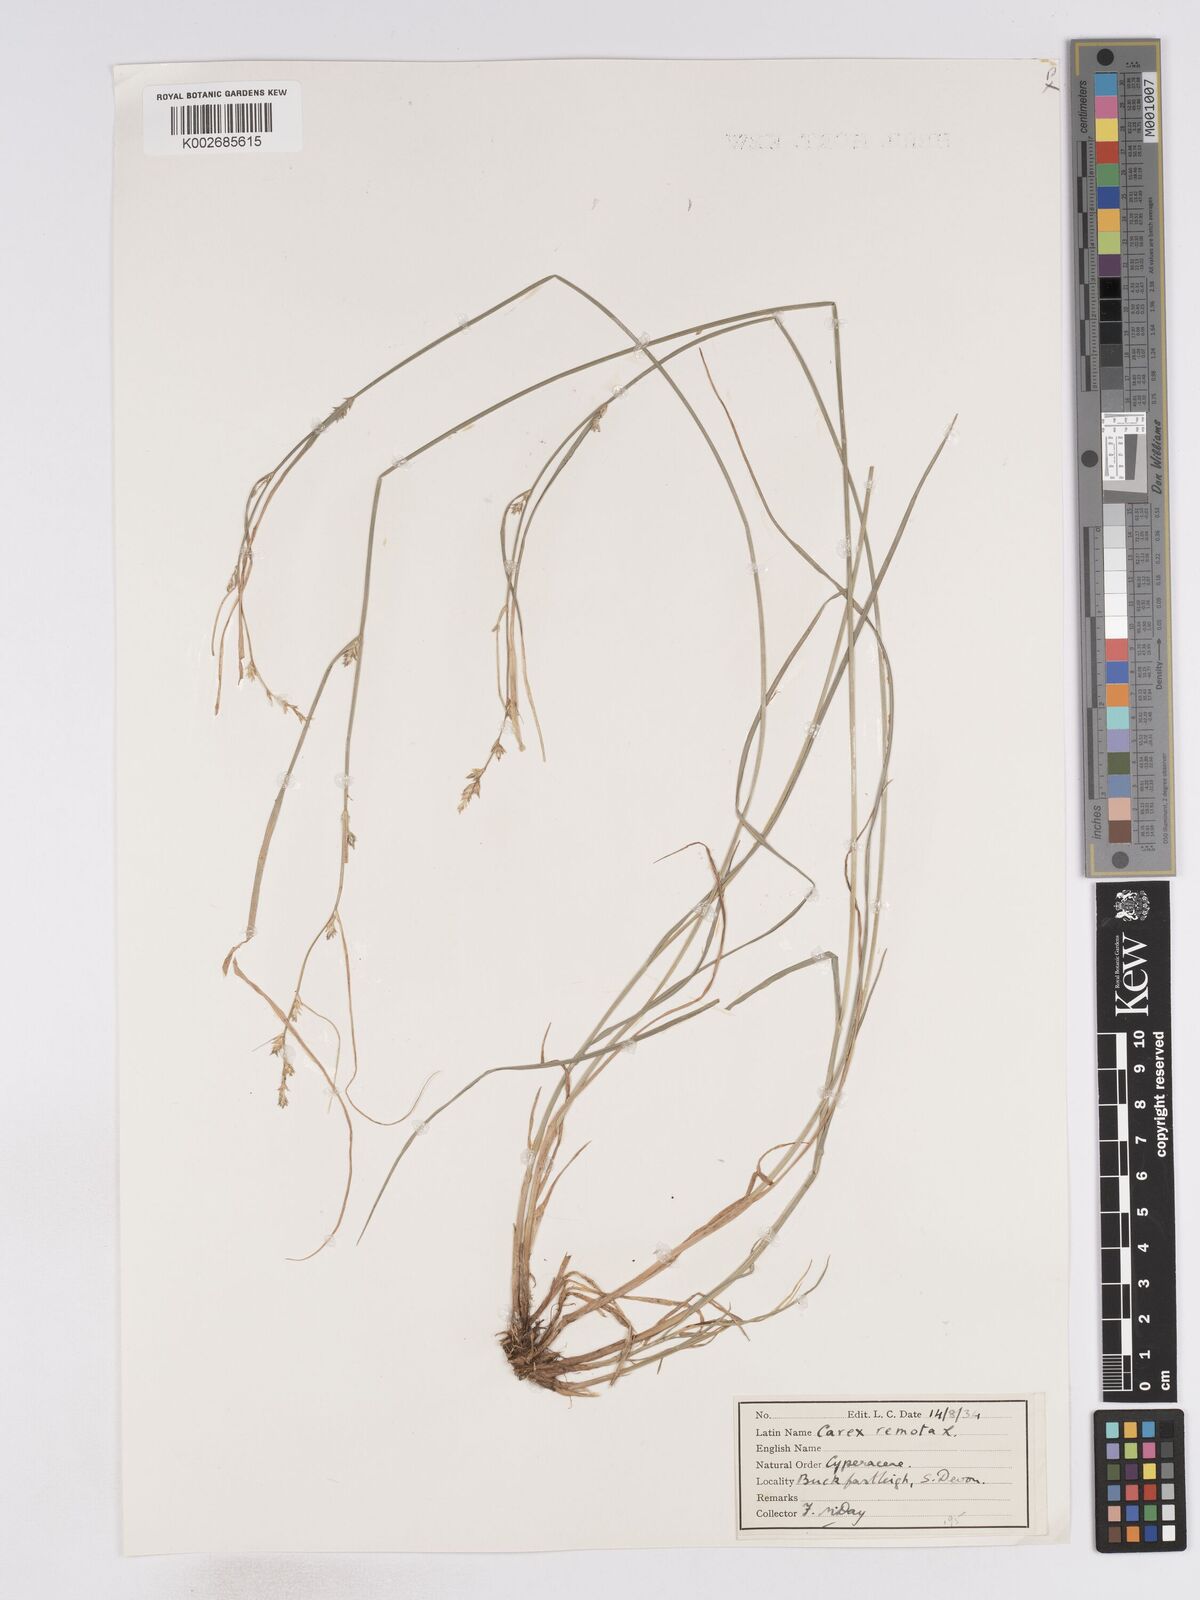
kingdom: Plantae
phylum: Tracheophyta
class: Liliopsida
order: Poales
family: Cyperaceae
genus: Carex
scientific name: Carex remota
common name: Remote sedge
